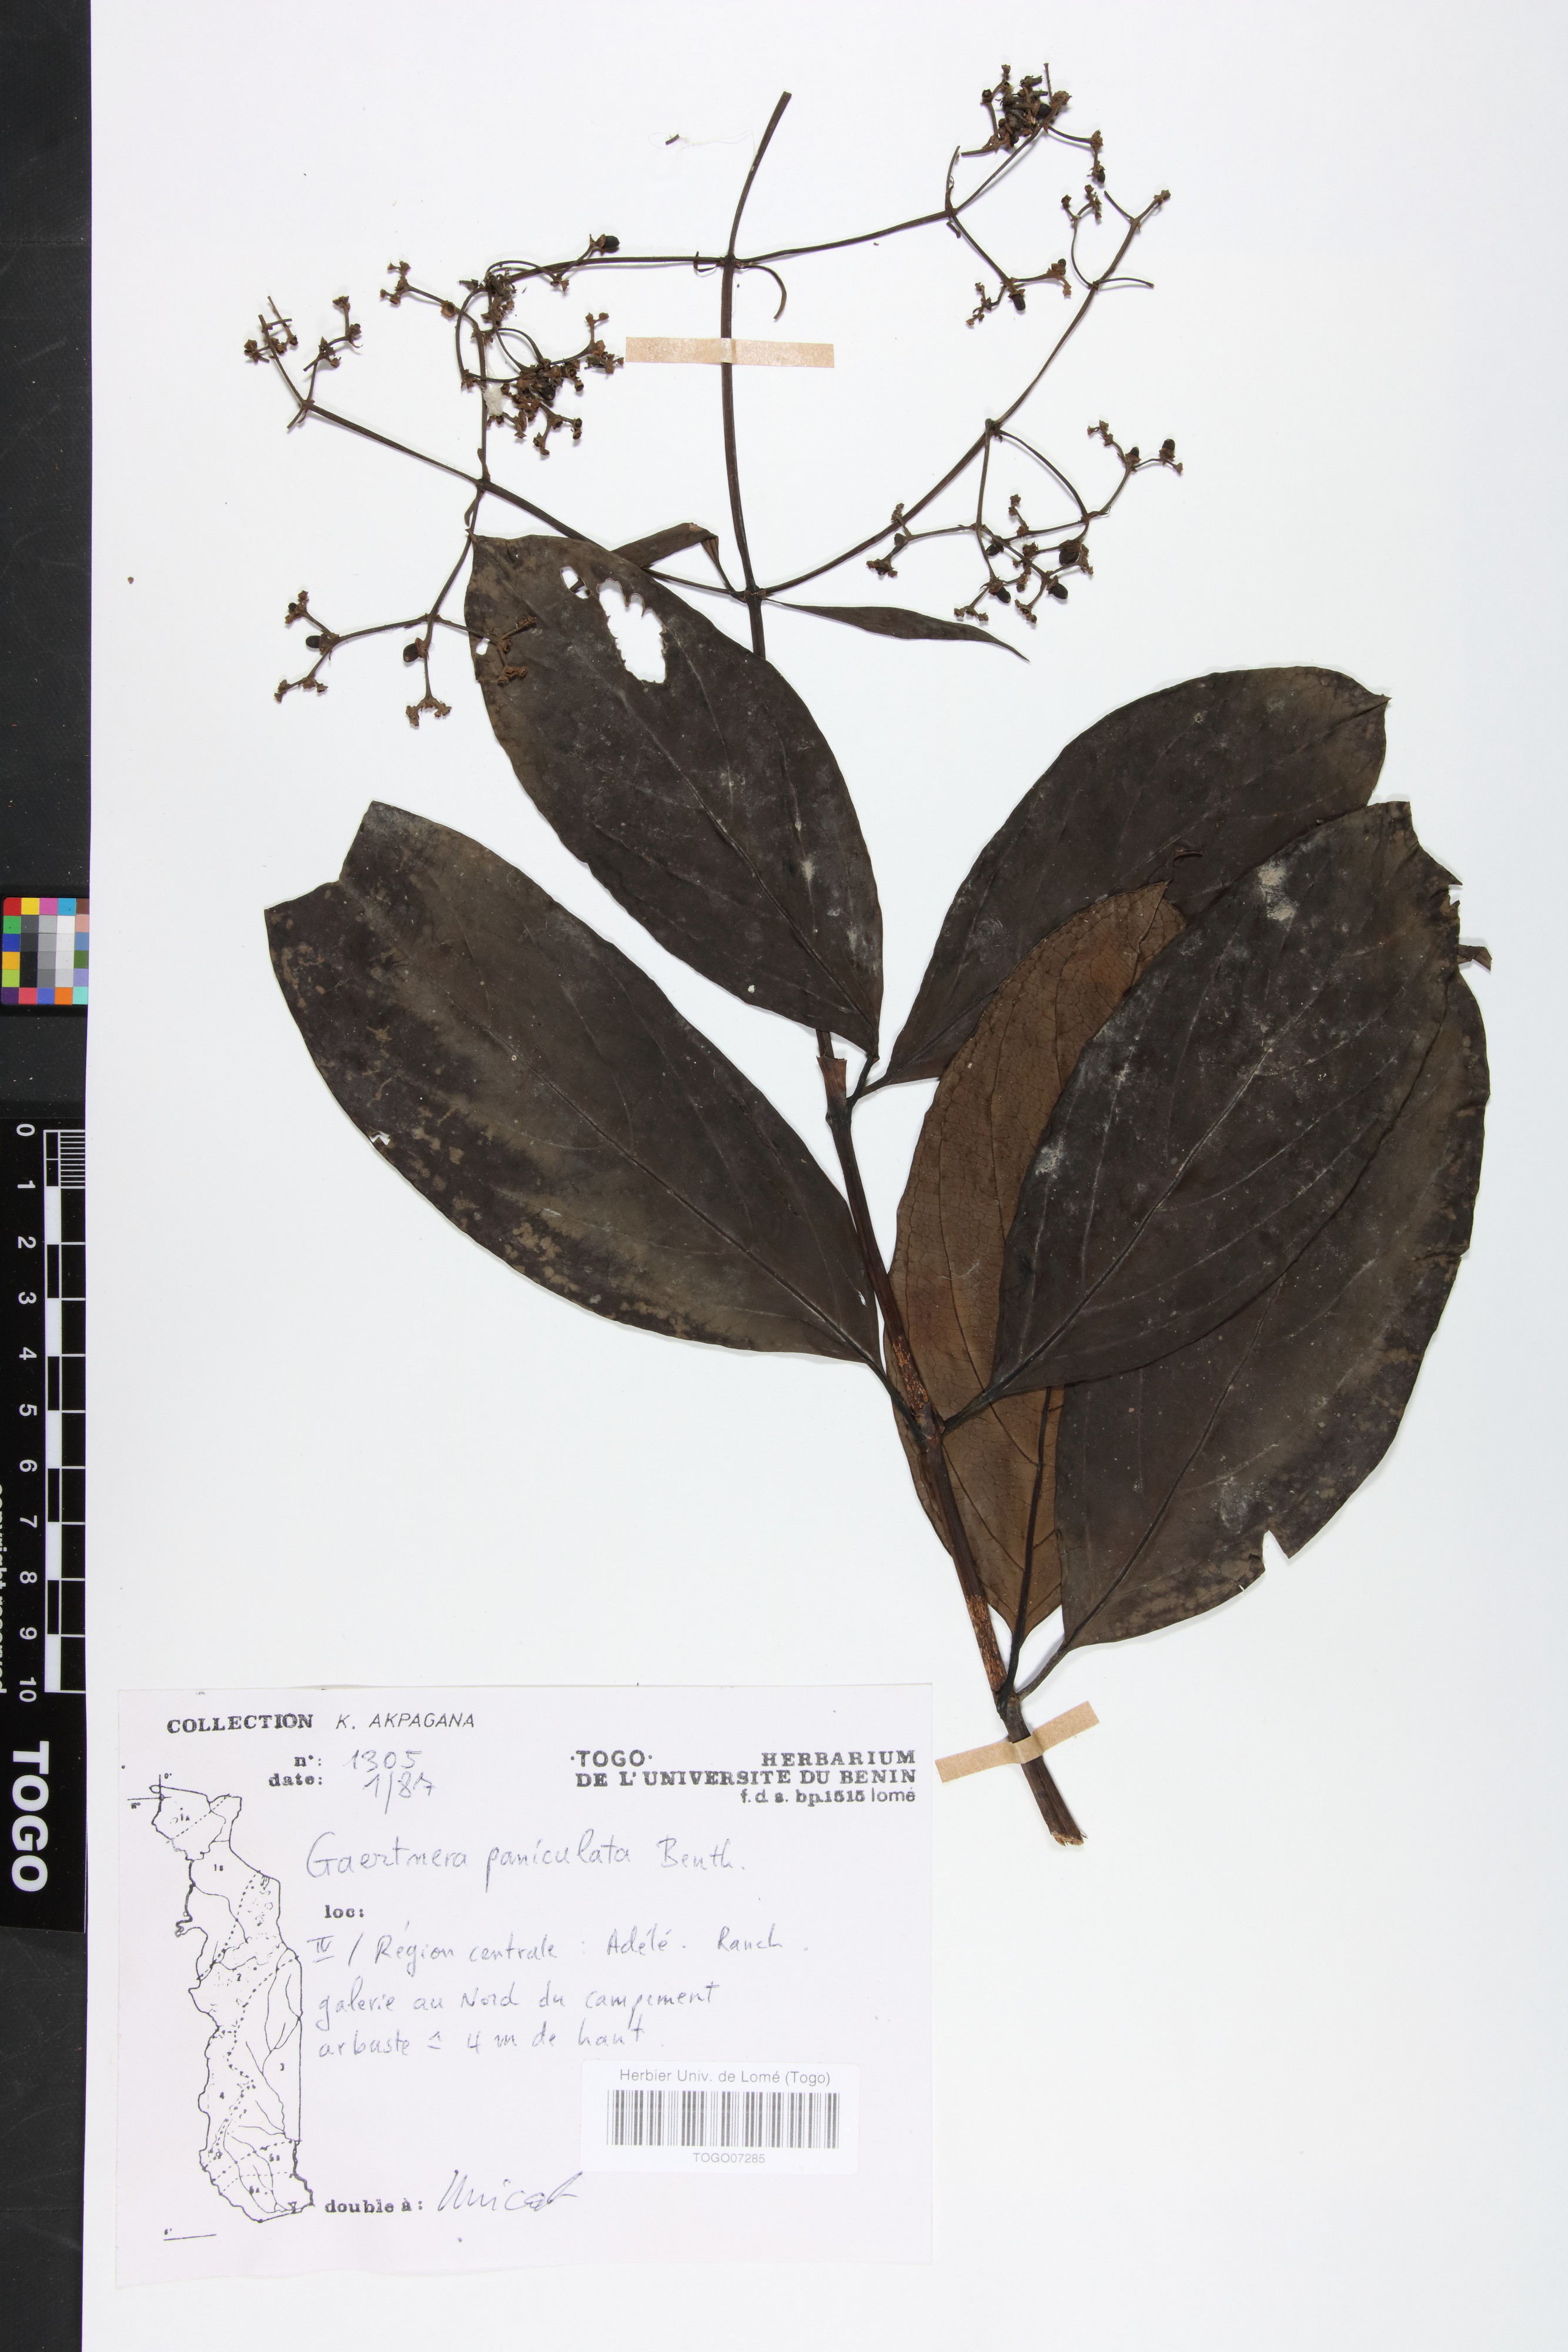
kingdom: Plantae
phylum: Tracheophyta
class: Magnoliopsida
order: Gentianales
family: Rubiaceae
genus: Gaertnera
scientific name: Gaertnera paniculata
